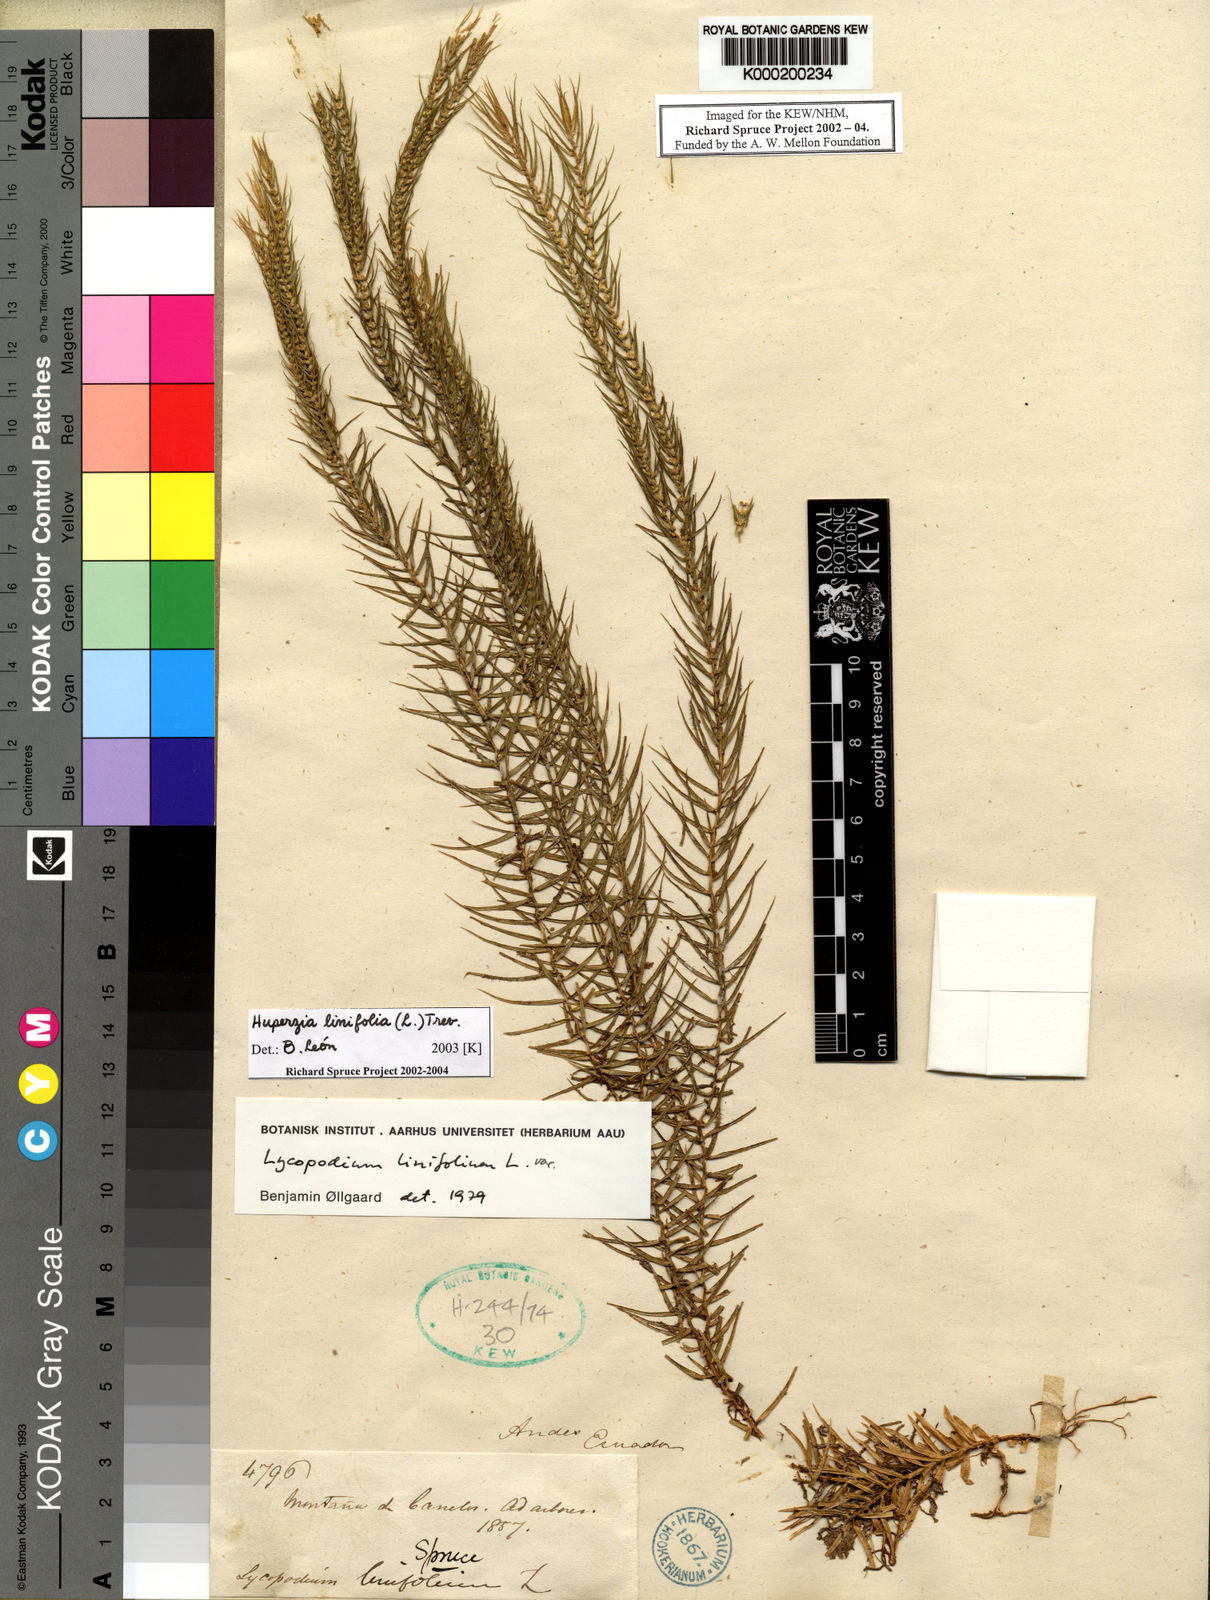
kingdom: Plantae
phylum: Tracheophyta
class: Lycopodiopsida
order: Lycopodiales
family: Lycopodiaceae
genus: Phlegmariurus
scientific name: Phlegmariurus linifolius
